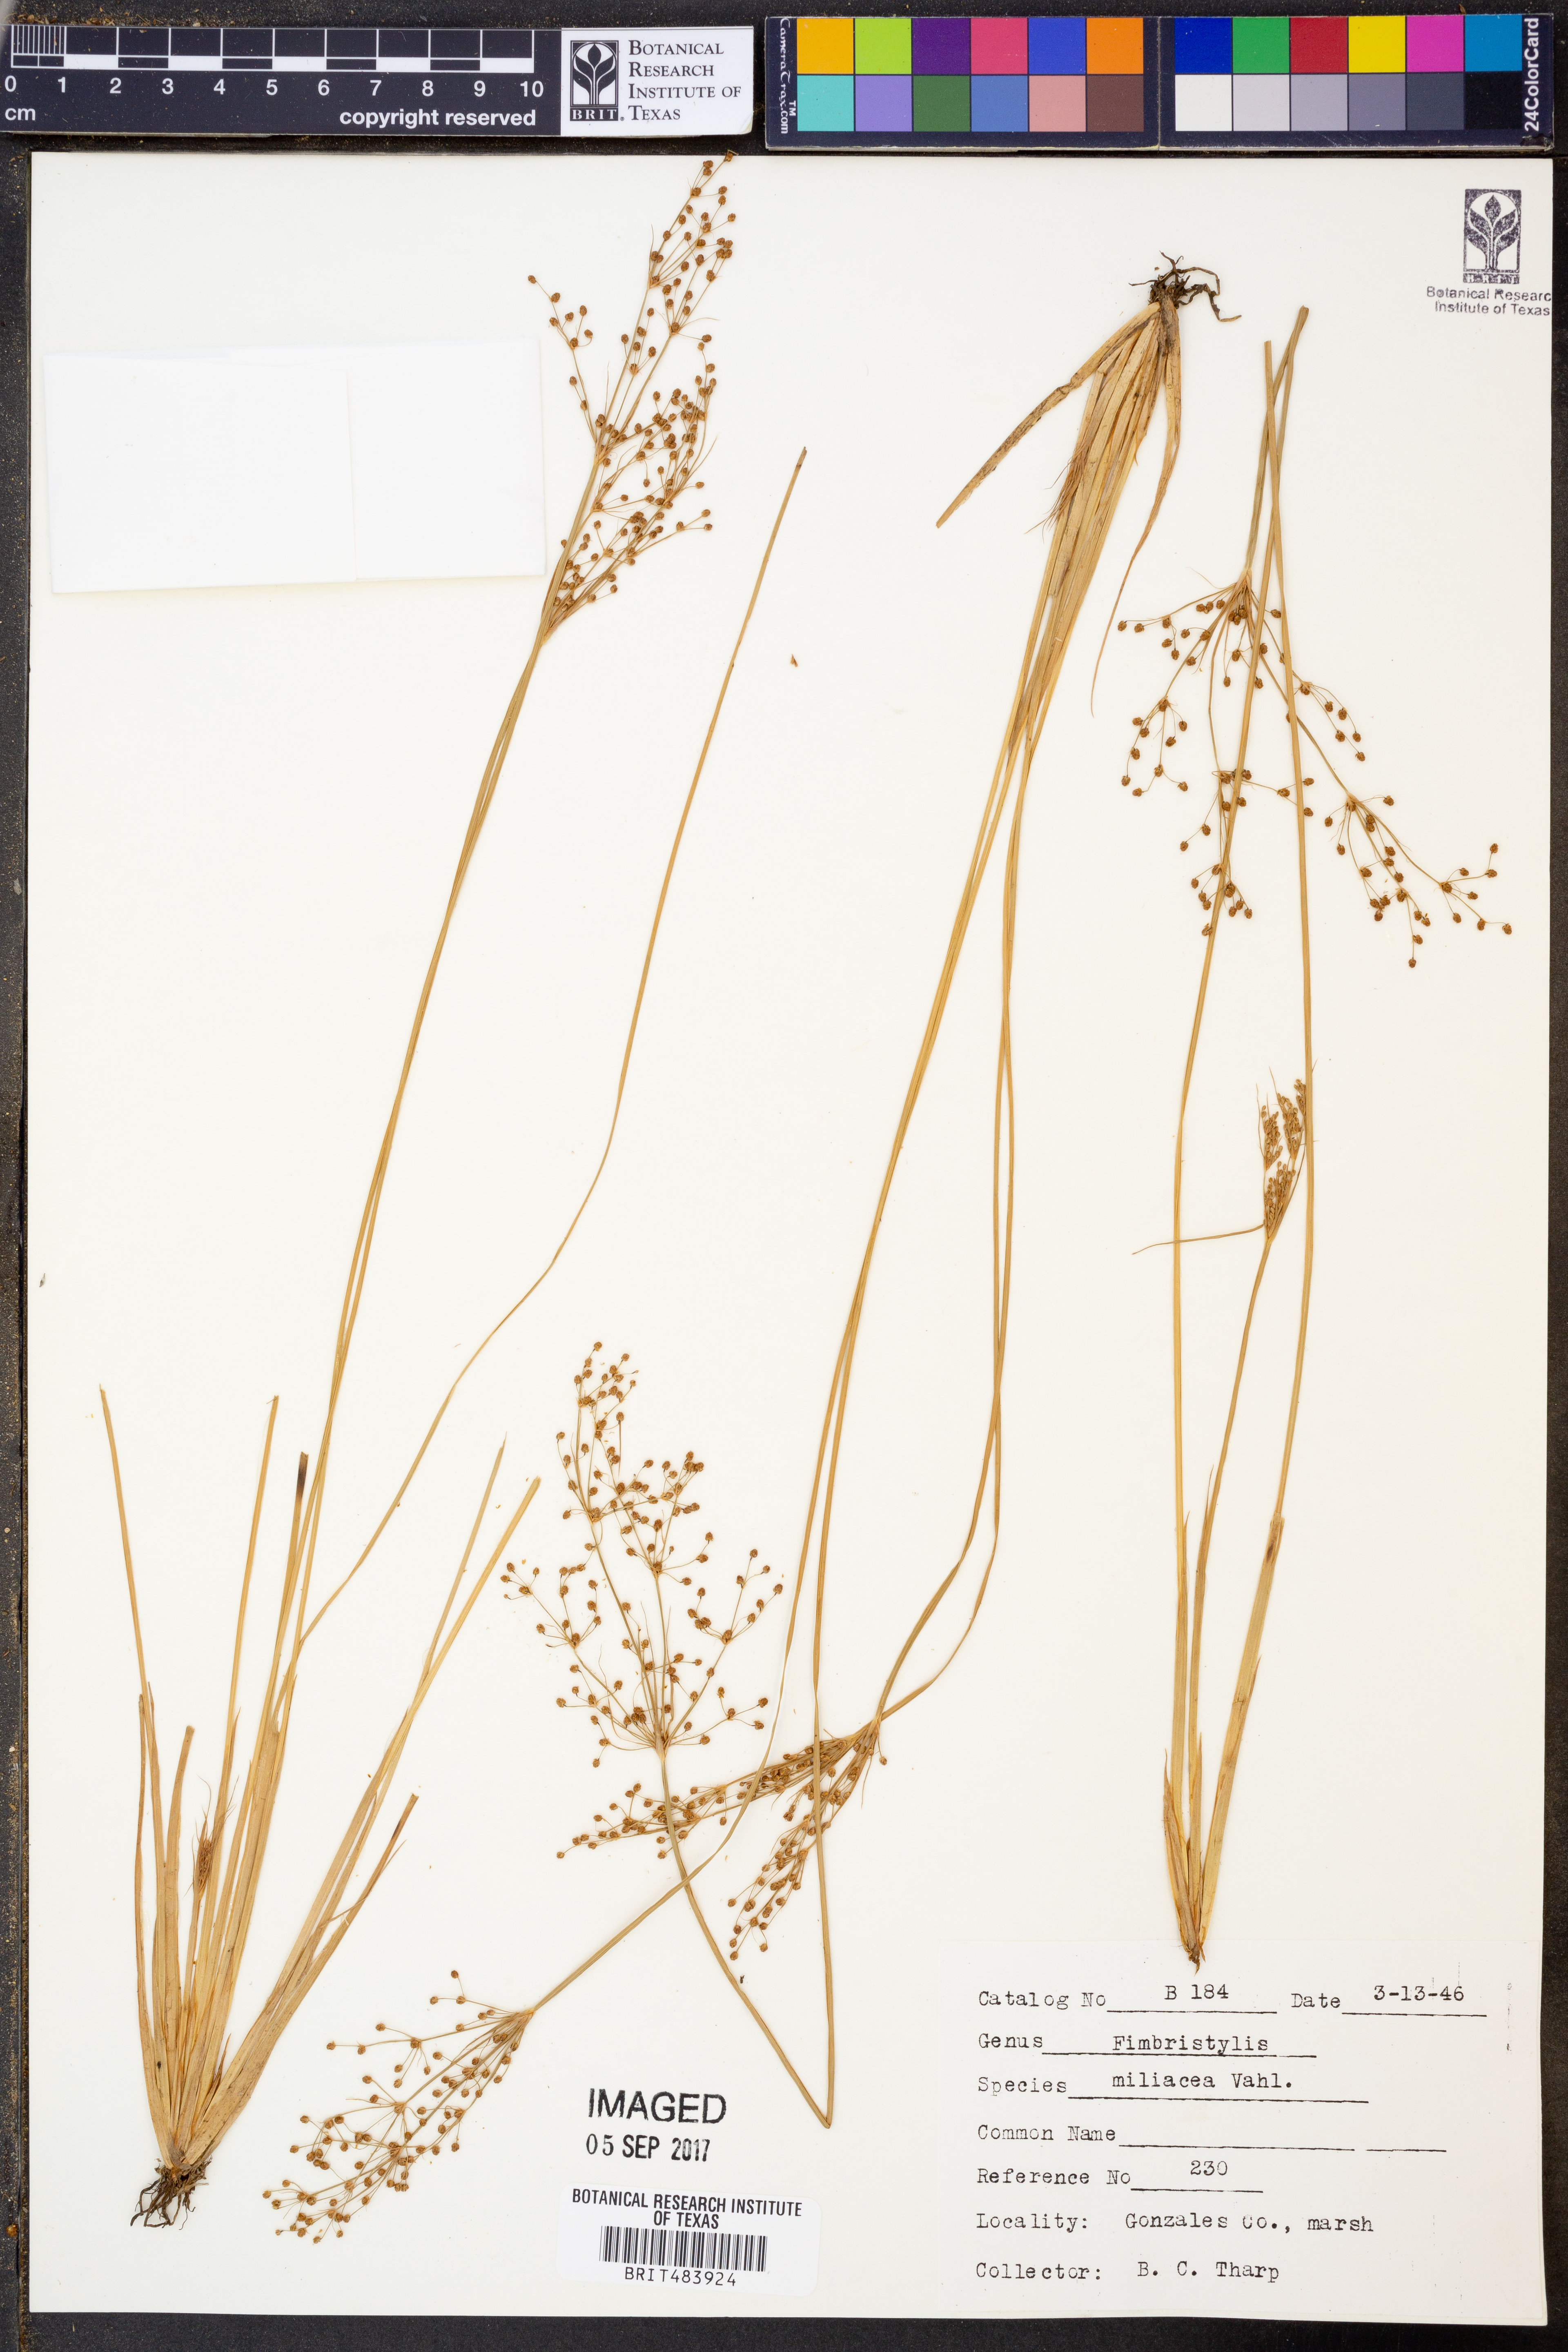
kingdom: Plantae
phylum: Tracheophyta
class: Liliopsida
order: Poales
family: Cyperaceae
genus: Fimbristylis
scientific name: Fimbristylis quinquangularis
